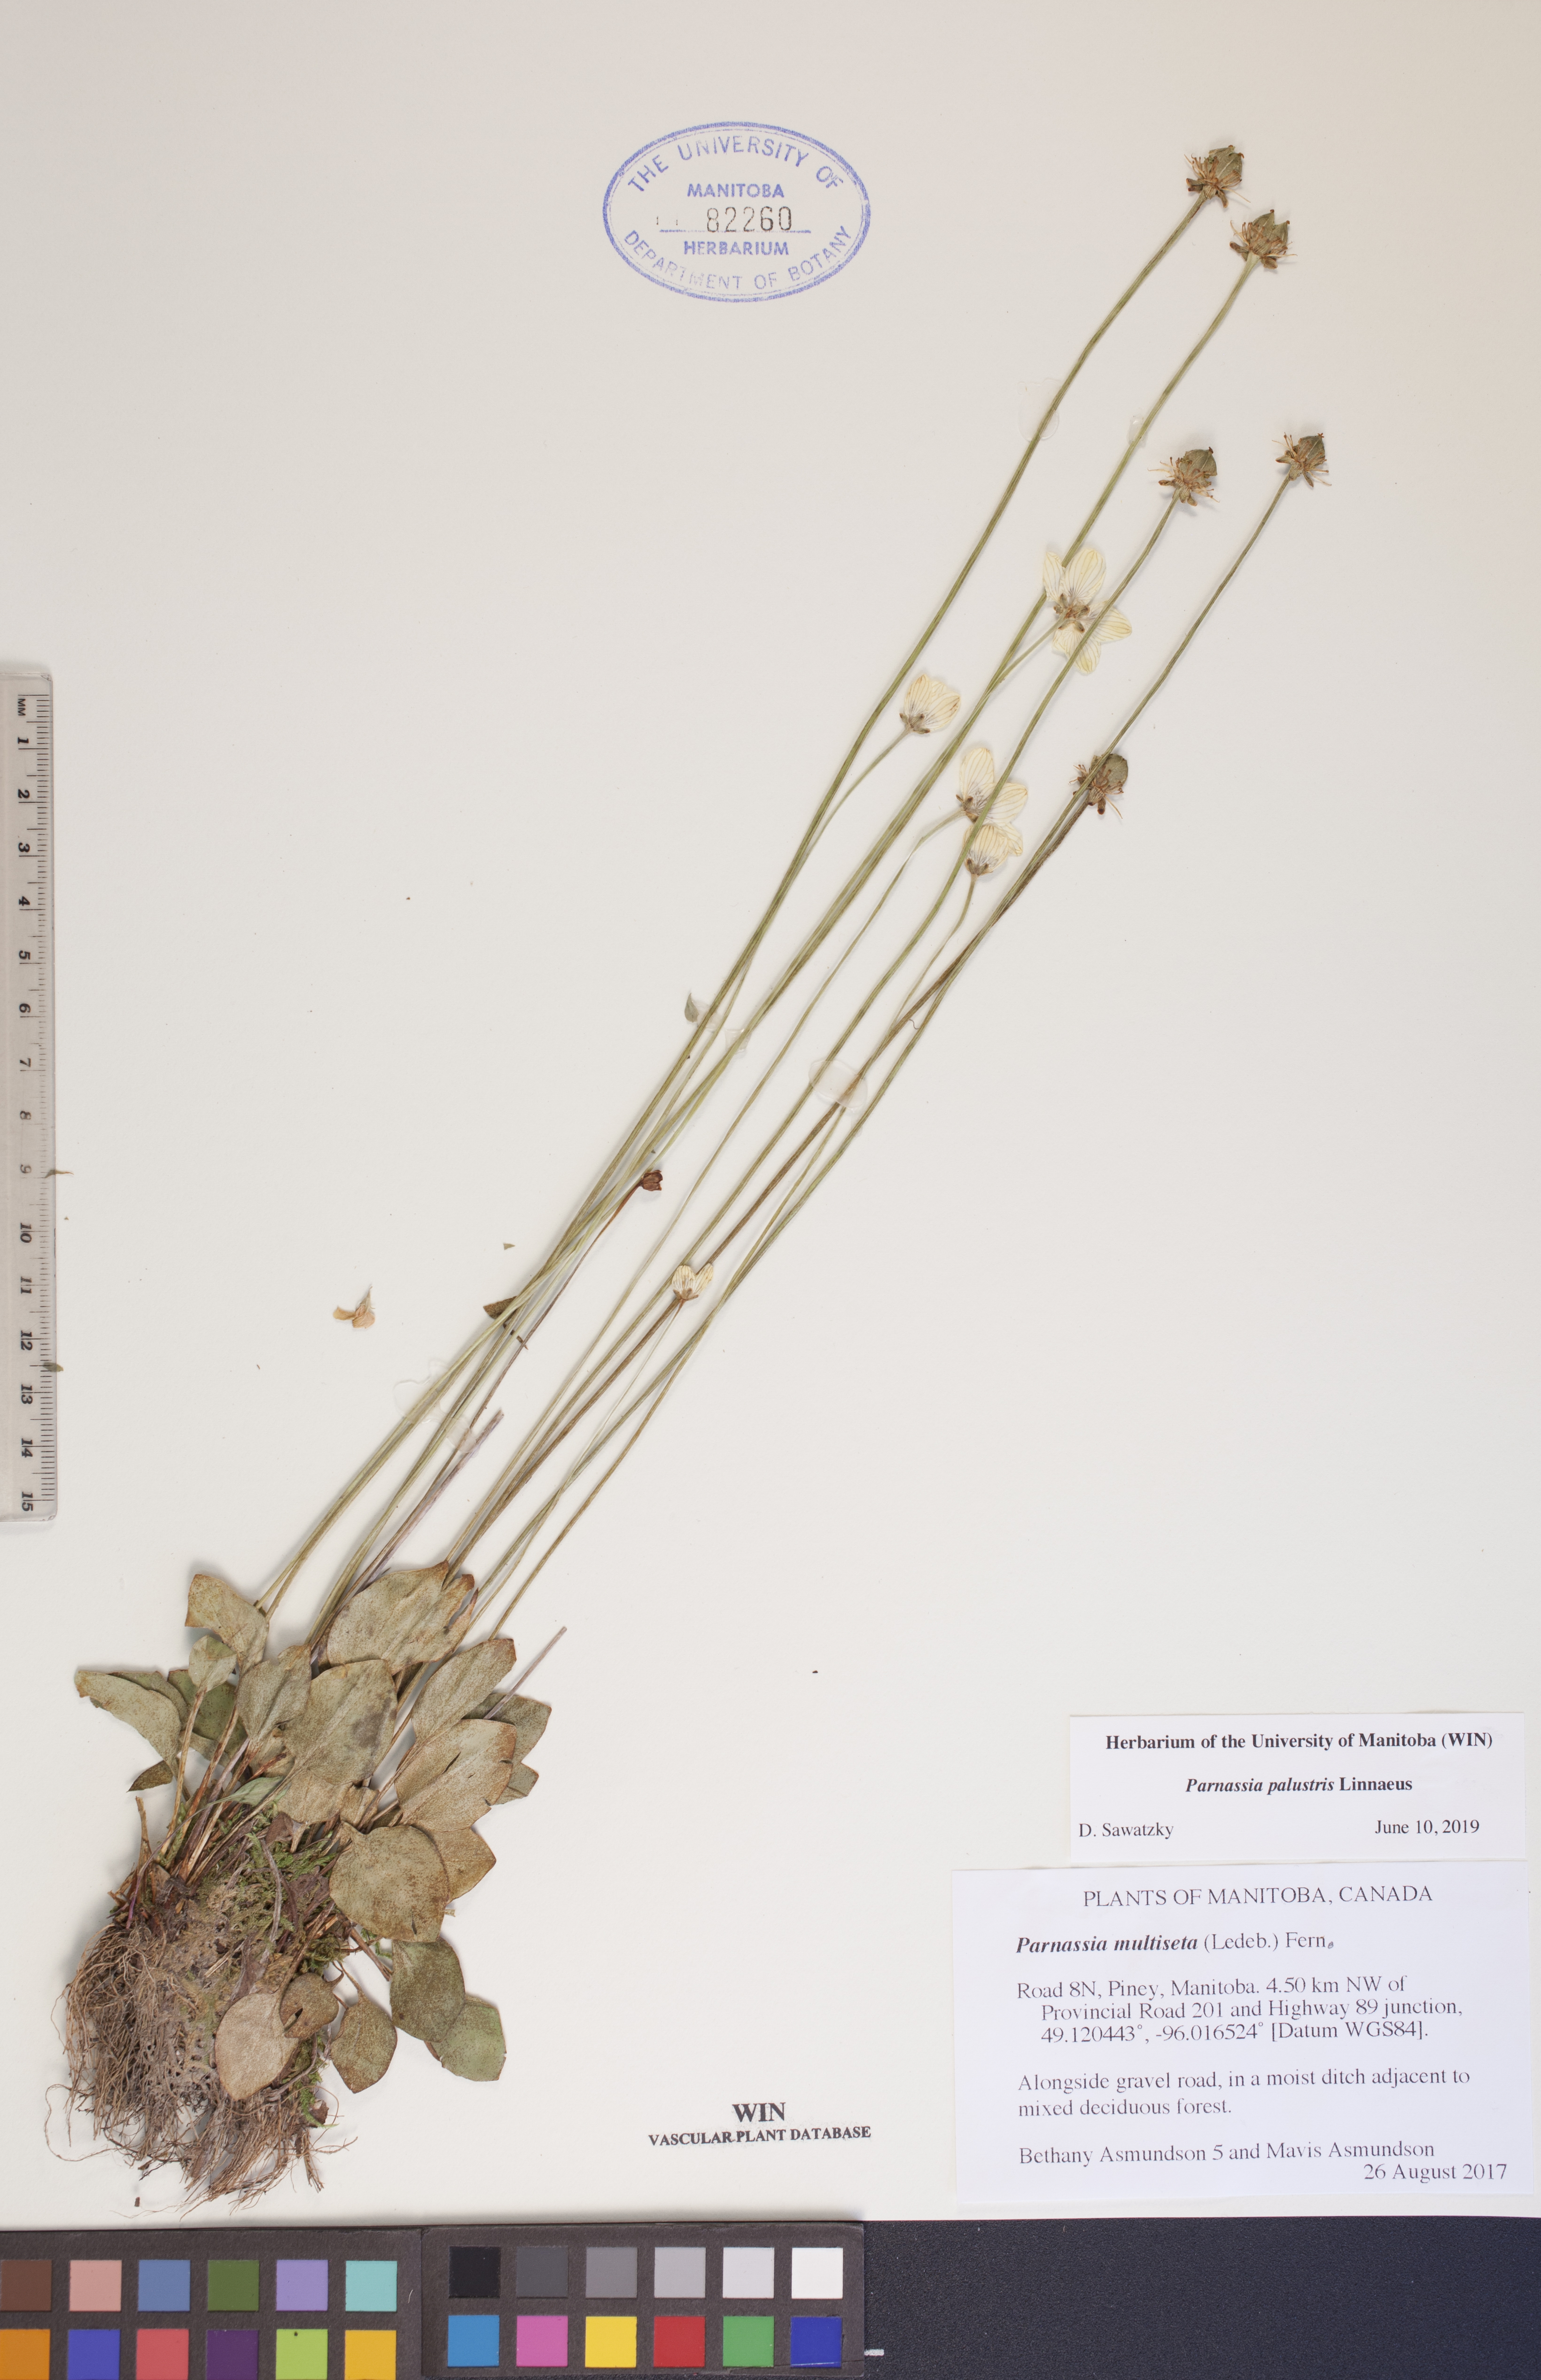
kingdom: Plantae
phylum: Tracheophyta
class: Magnoliopsida
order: Celastrales
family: Parnassiaceae
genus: Parnassia
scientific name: Parnassia palustris
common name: Grass-of-parnassus
